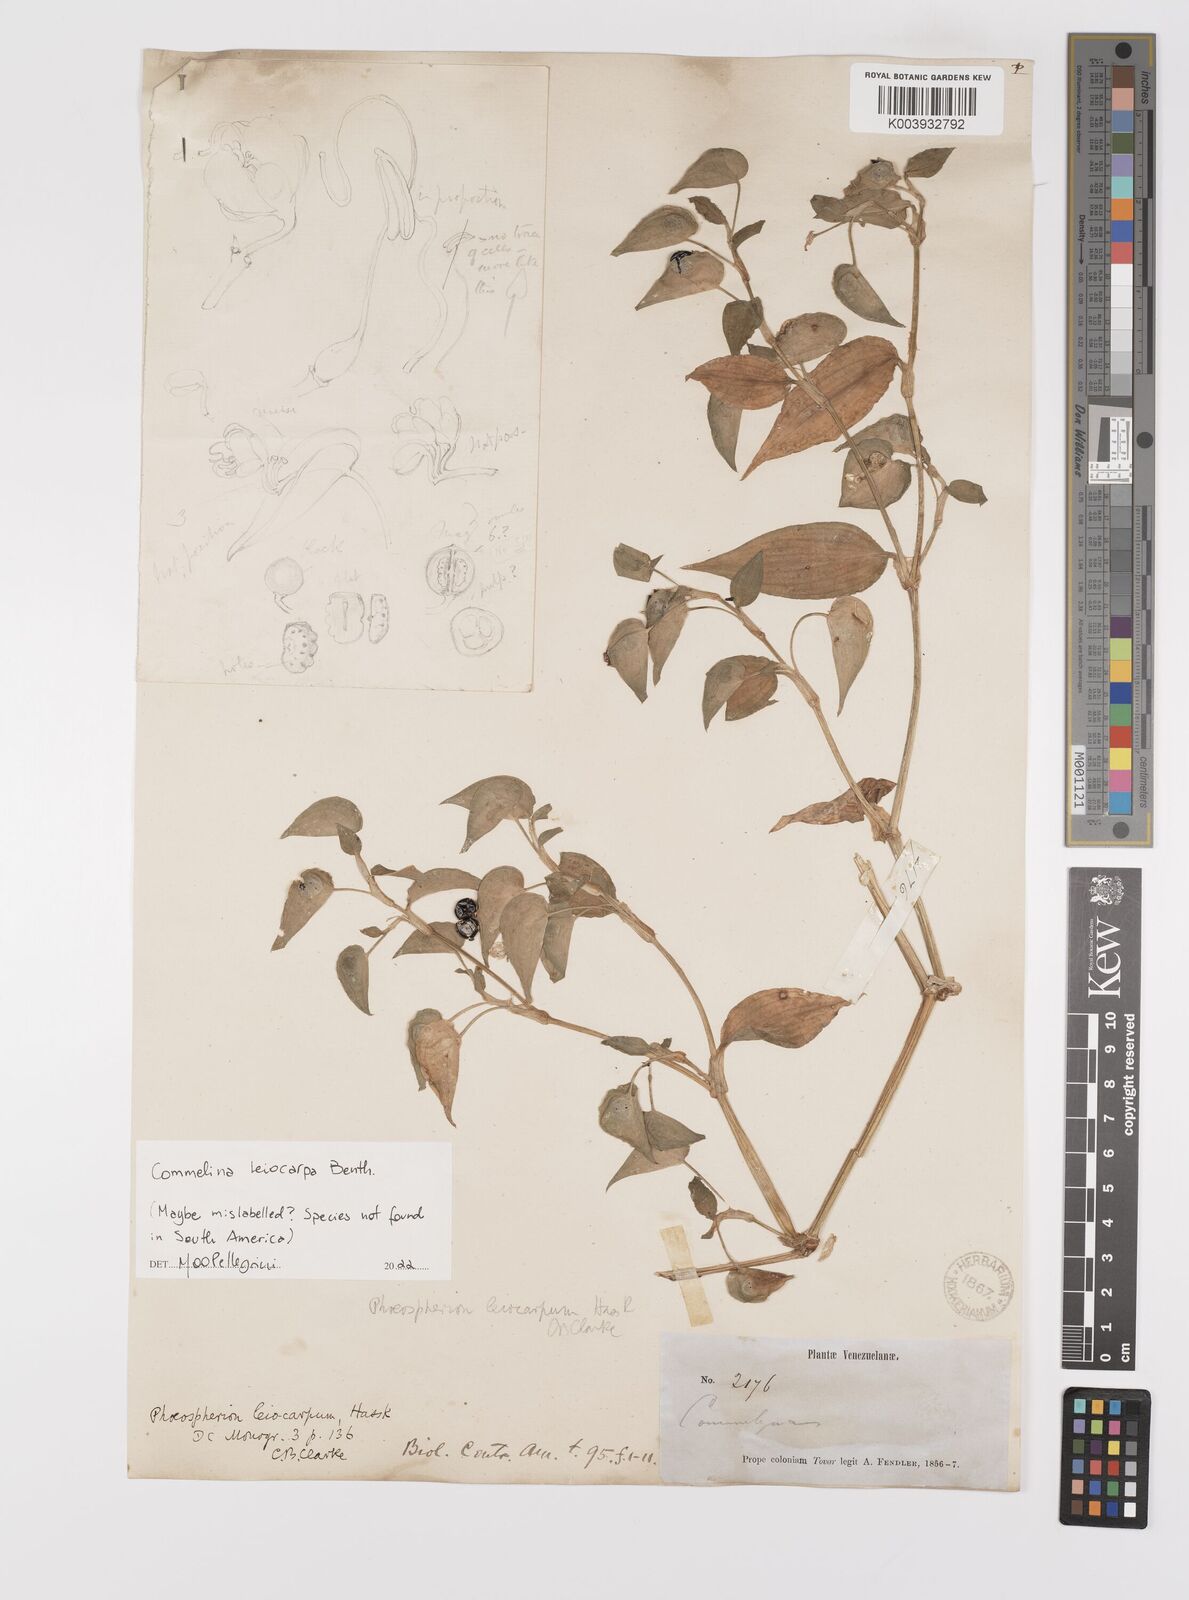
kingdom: Plantae
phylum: Tracheophyta
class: Liliopsida
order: Commelinales
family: Commelinaceae
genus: Commelina
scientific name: Commelina leiocarpa
